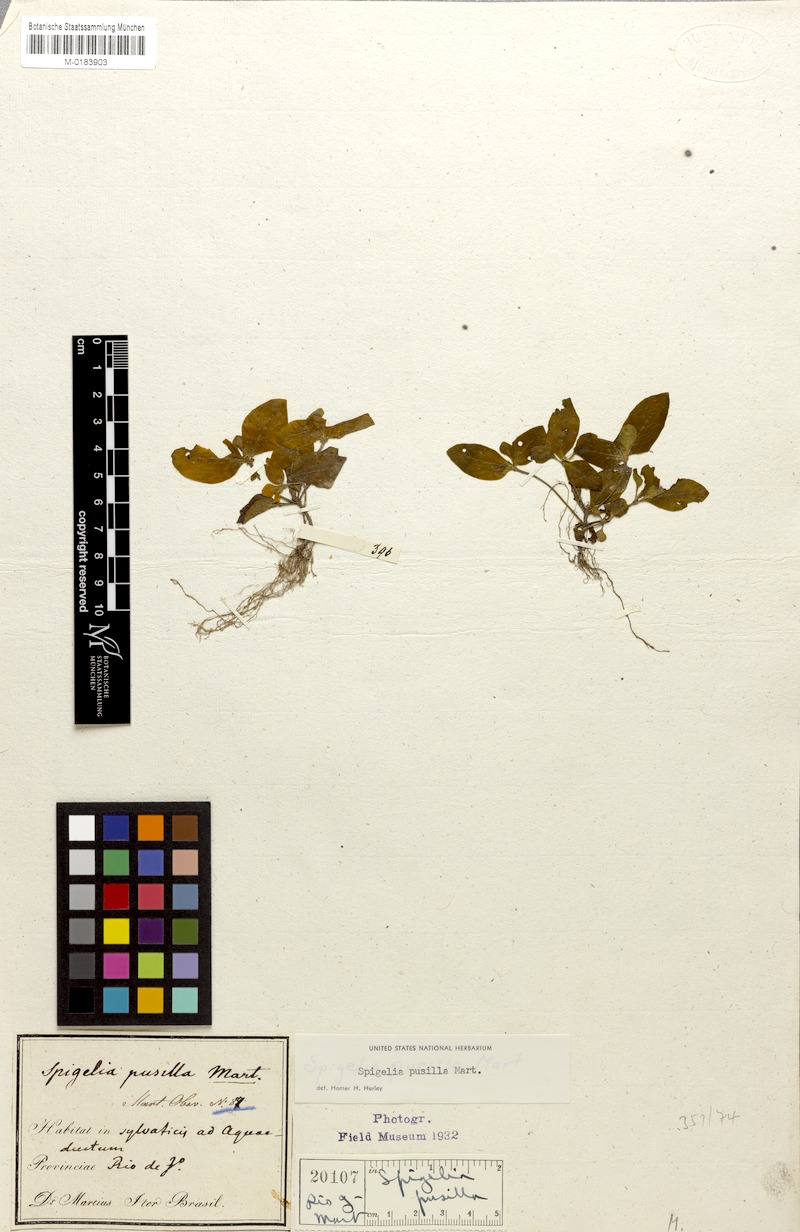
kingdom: Plantae
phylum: Tracheophyta
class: Magnoliopsida
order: Gentianales
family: Loganiaceae
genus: Spigelia
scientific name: Spigelia pusilla
